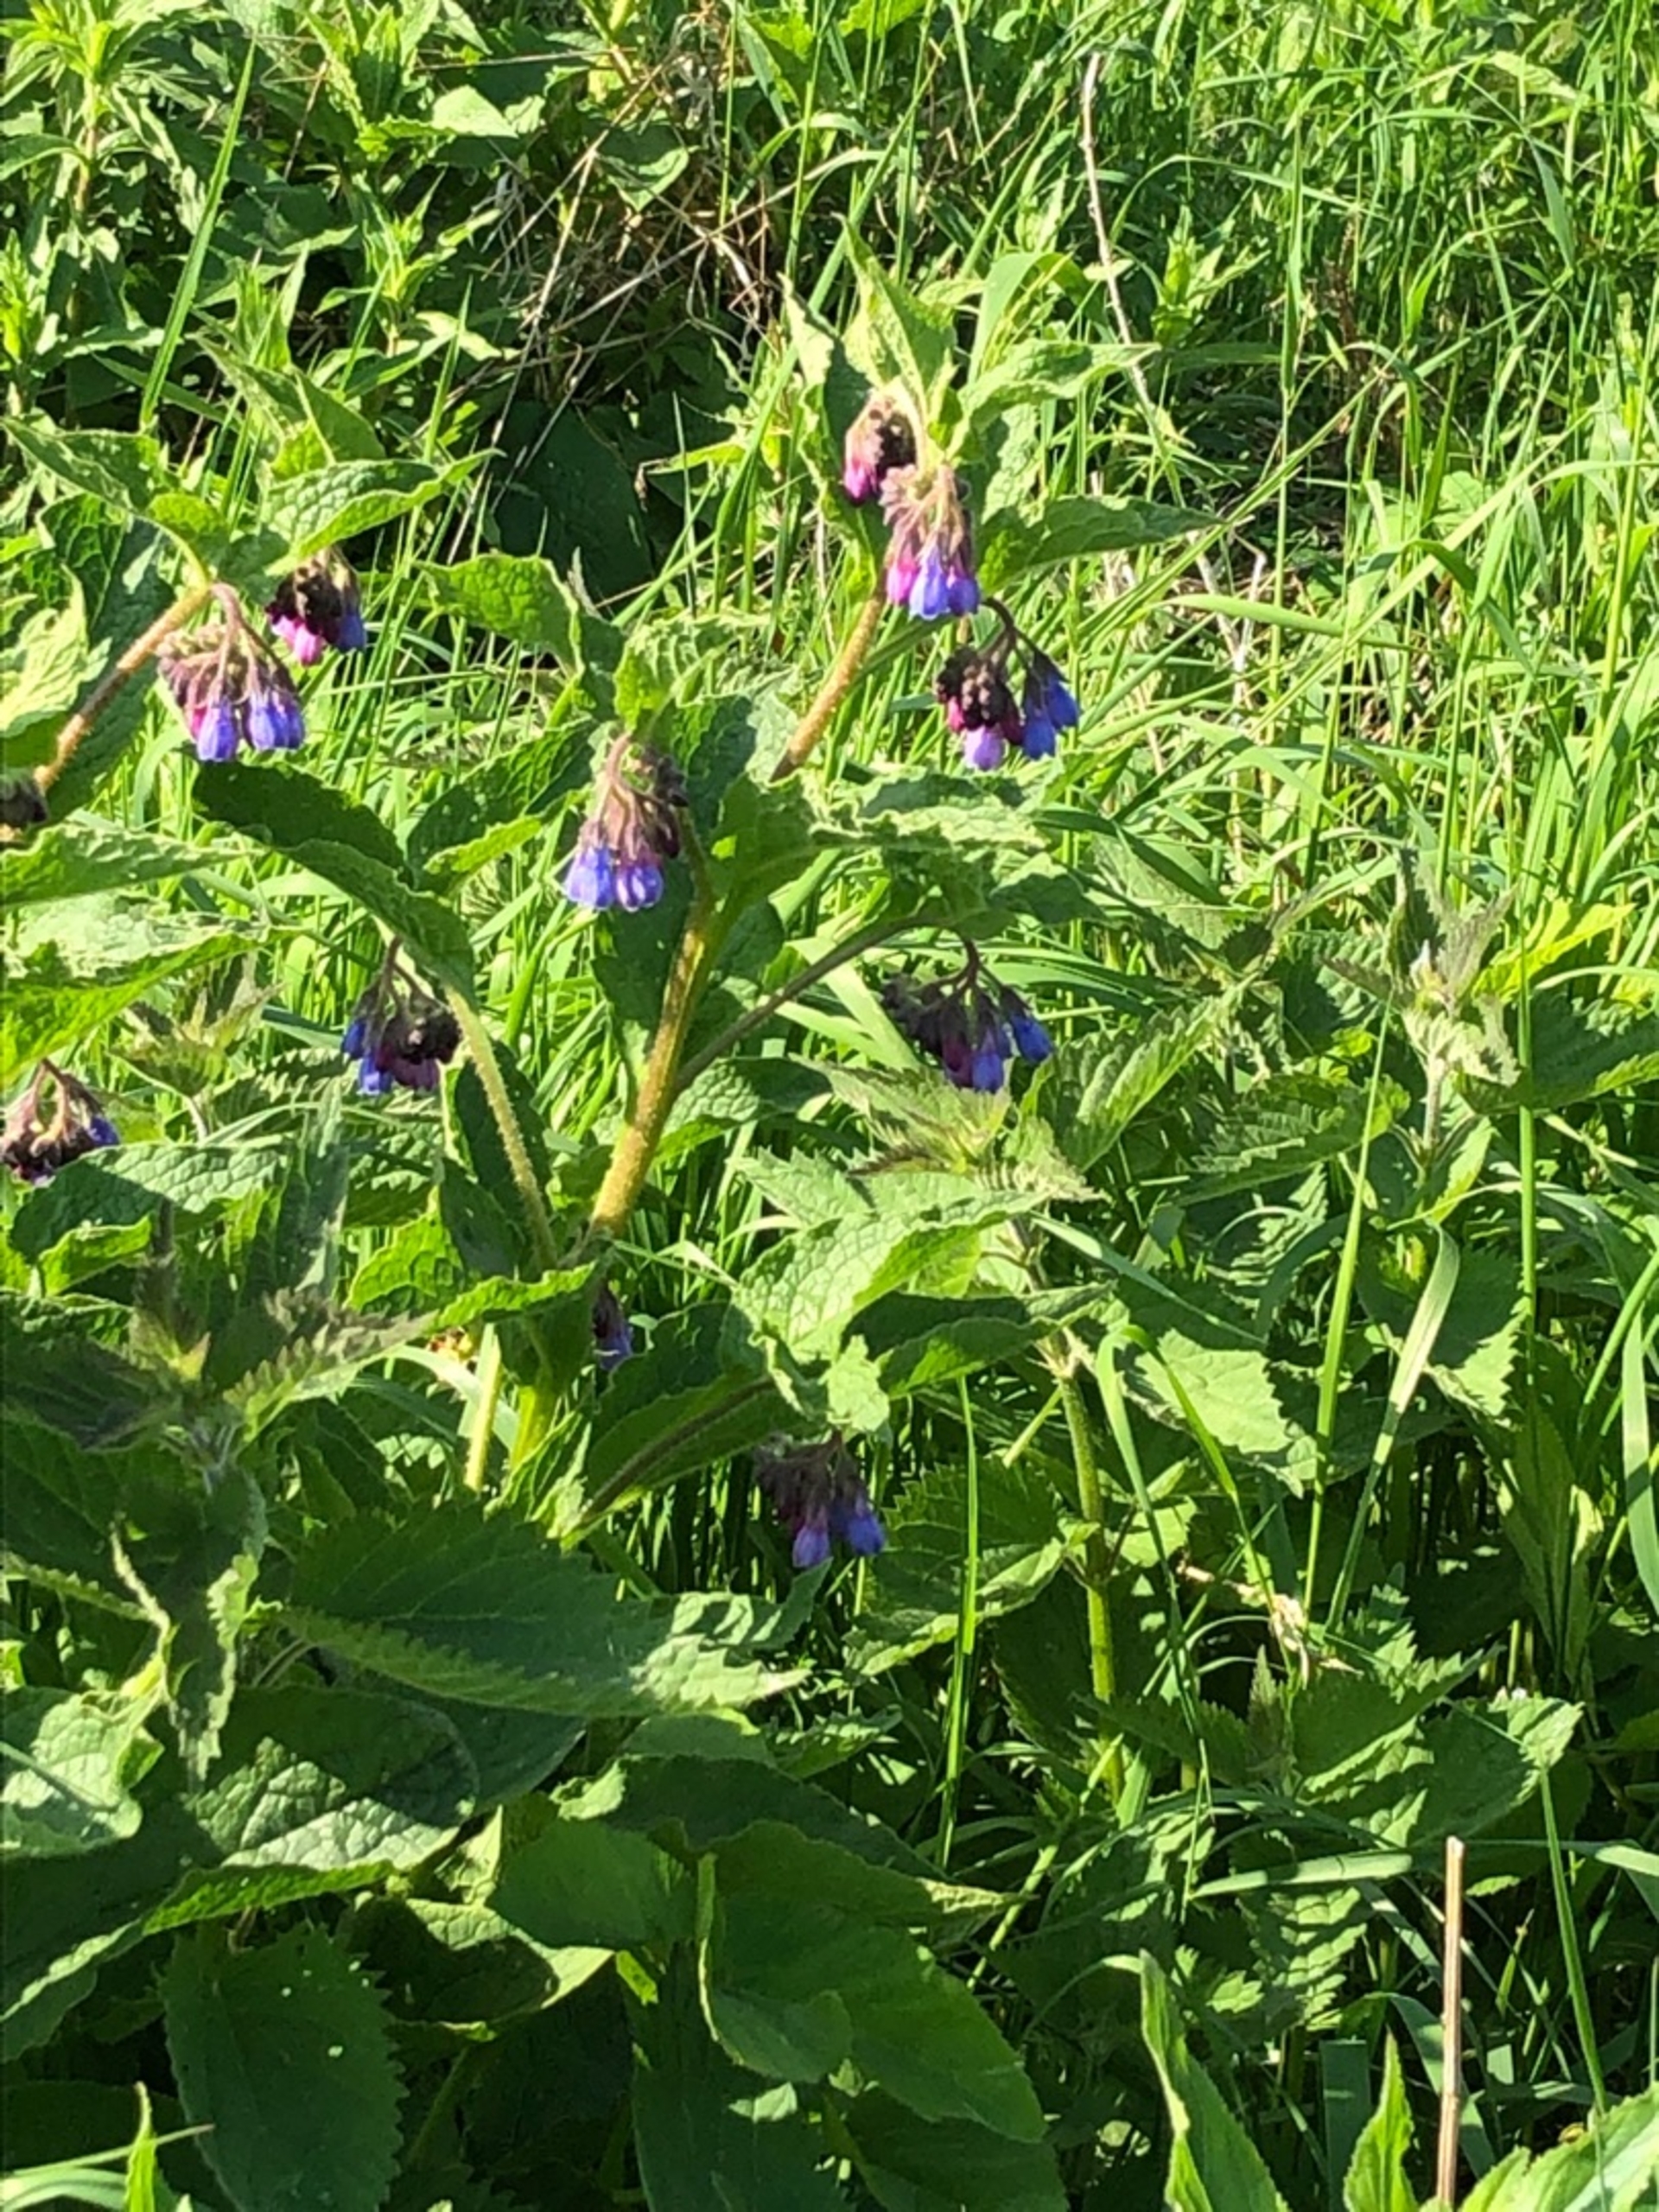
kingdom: Plantae
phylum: Tracheophyta
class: Magnoliopsida
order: Boraginales
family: Boraginaceae
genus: Symphytum
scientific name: Symphytum uplandicum
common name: Foder-kulsukker
